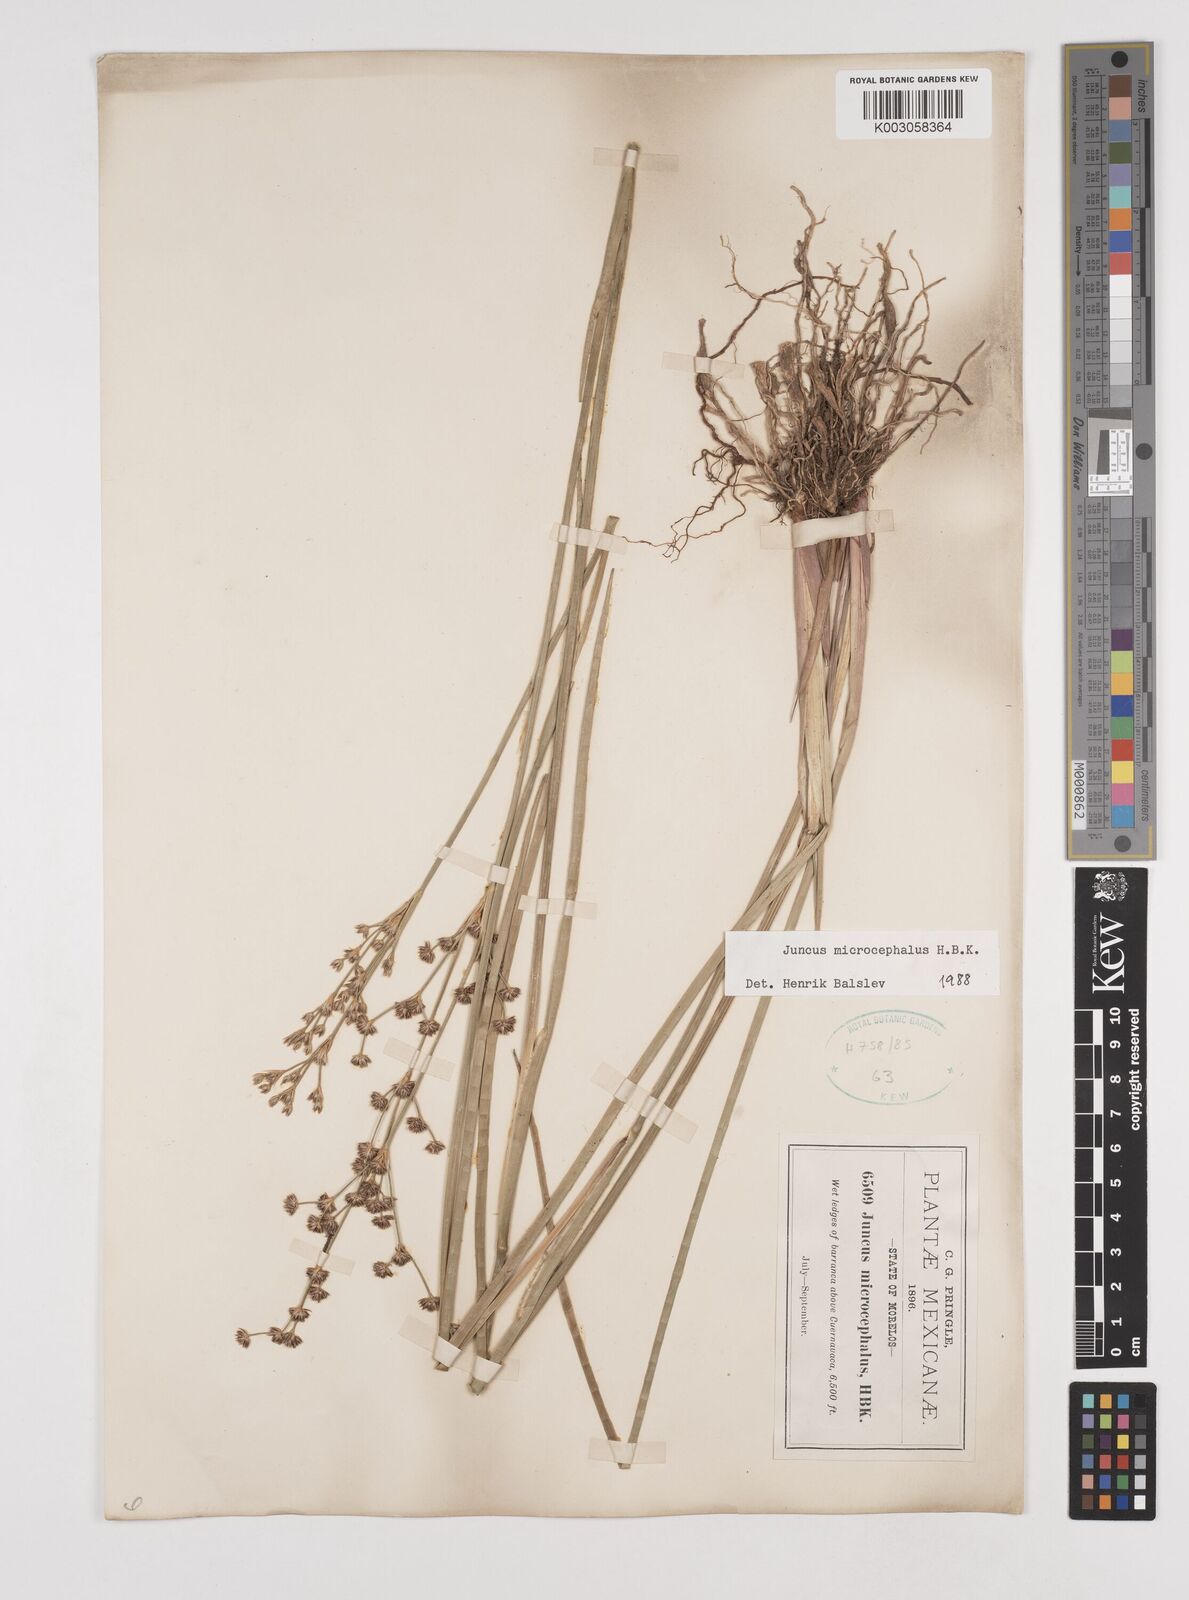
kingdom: Plantae
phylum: Tracheophyta
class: Liliopsida
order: Poales
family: Juncaceae
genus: Juncus
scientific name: Juncus microcephalus
